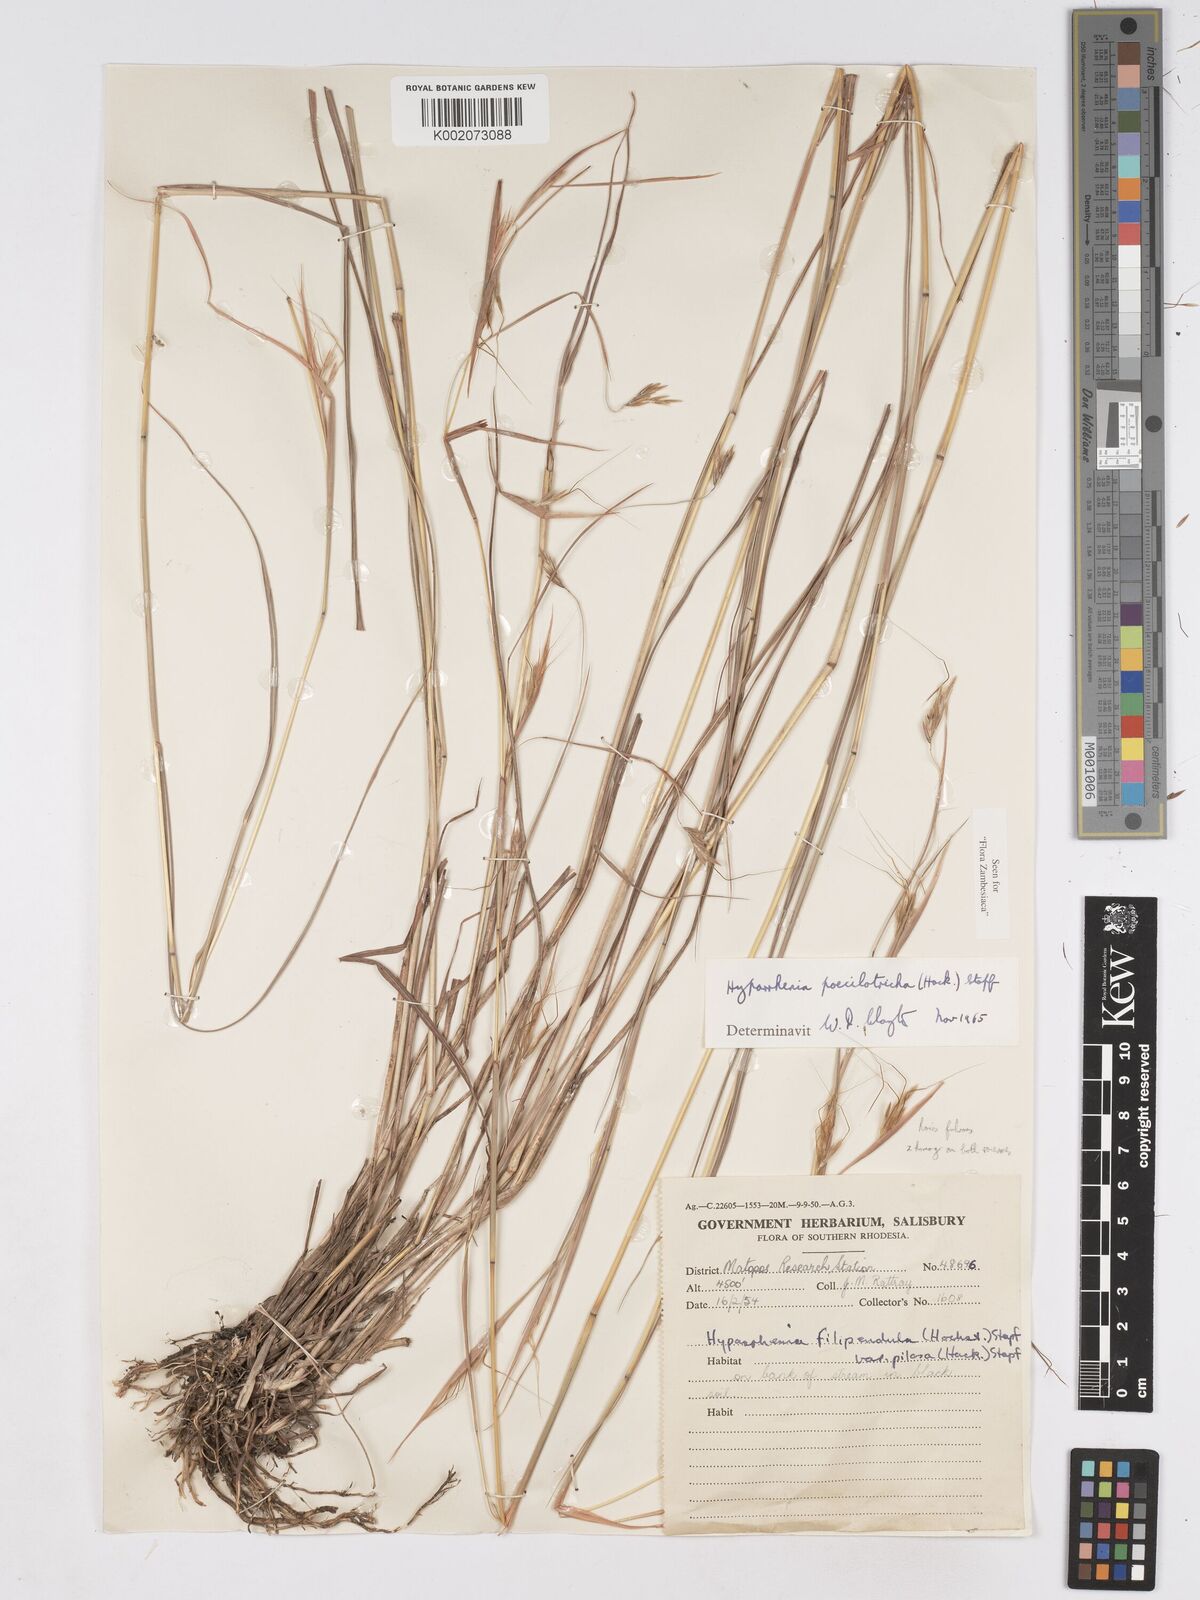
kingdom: Plantae
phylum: Tracheophyta
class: Liliopsida
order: Poales
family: Poaceae
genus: Hyparrhenia
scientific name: Hyparrhenia poecilotricha
